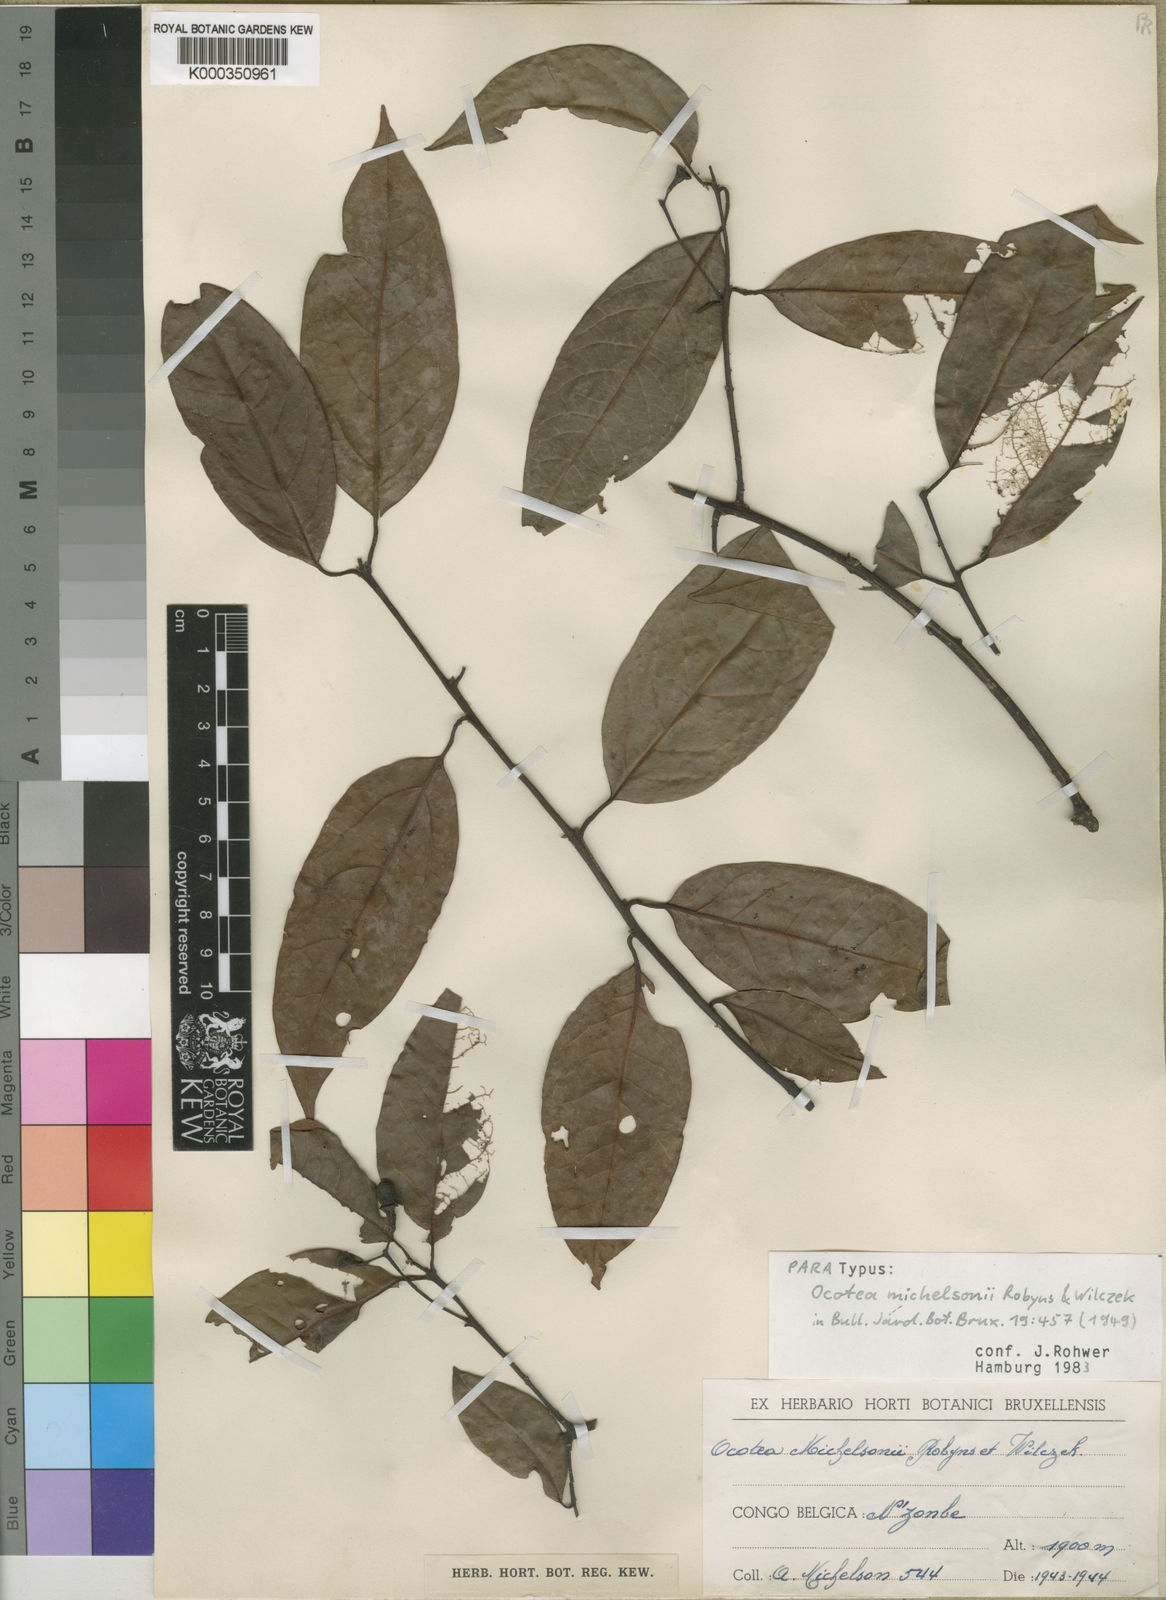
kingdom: Plantae
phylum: Tracheophyta
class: Magnoliopsida
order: Laurales
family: Lauraceae
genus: Kuloa
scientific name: Kuloa michelsonii
